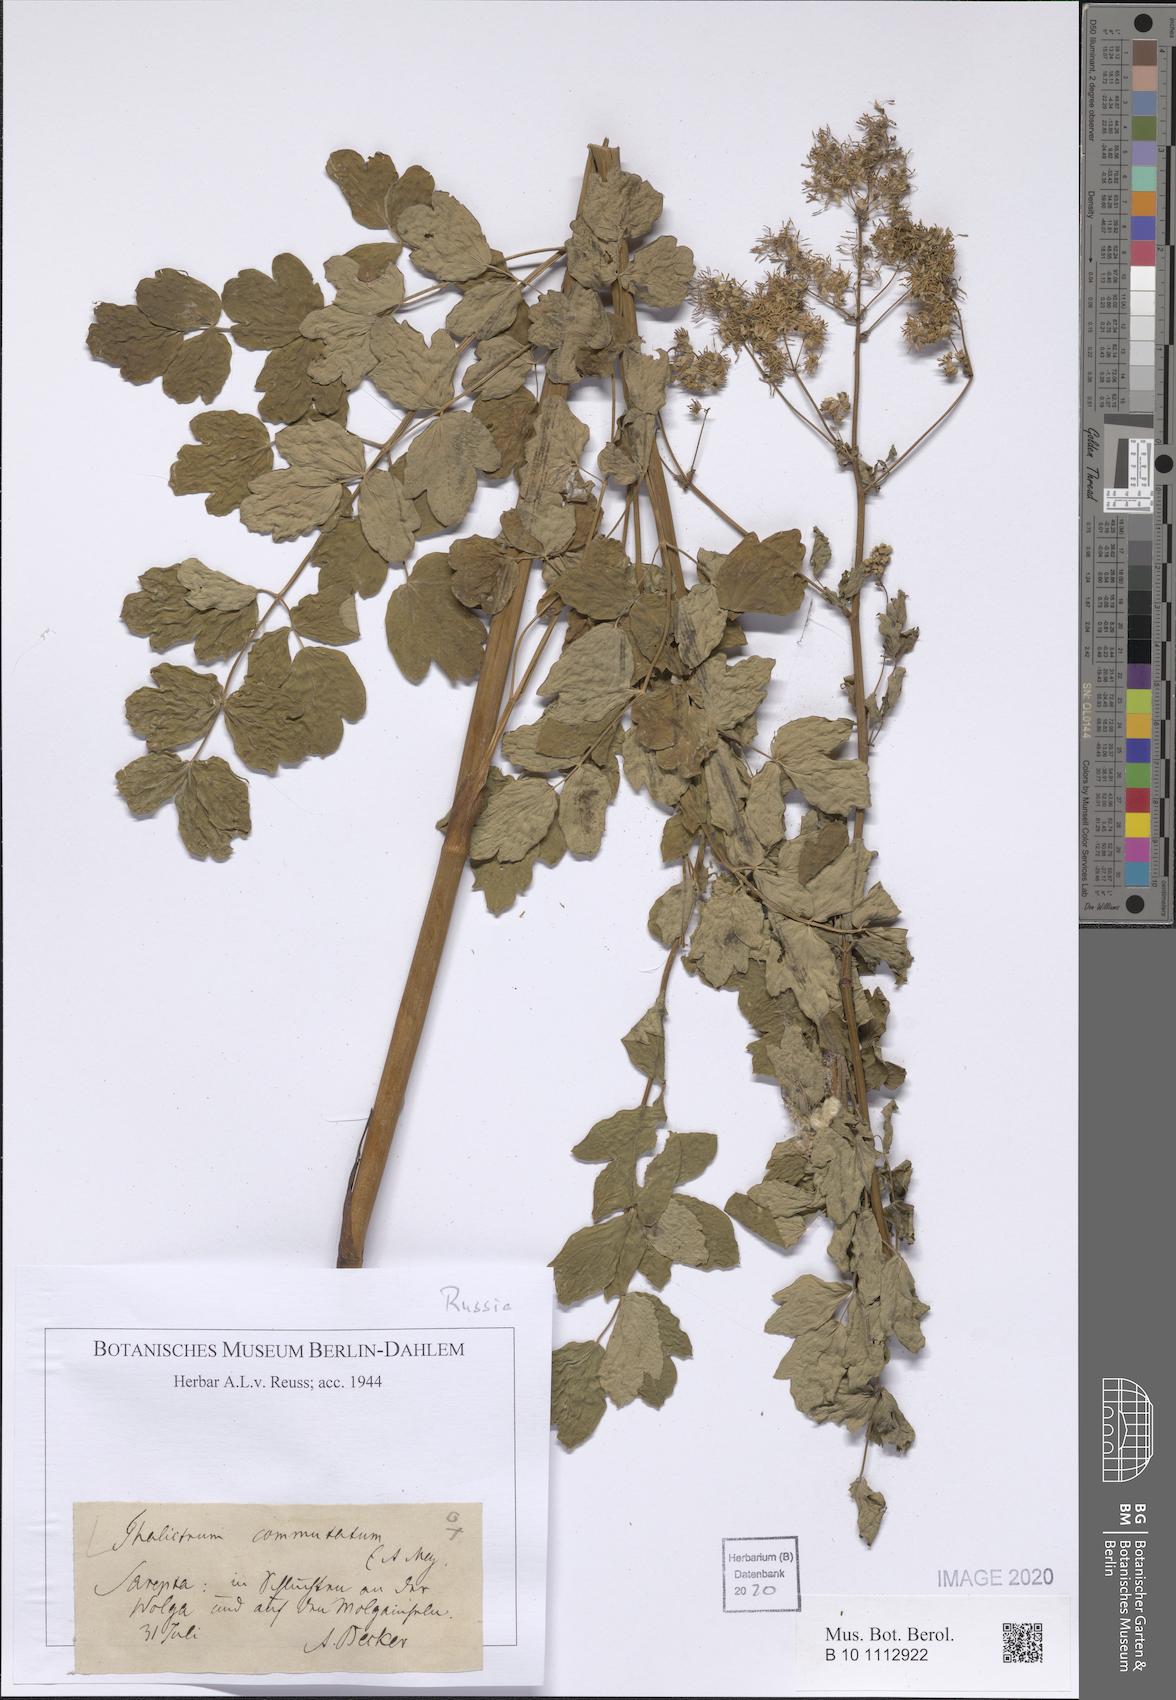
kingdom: Plantae
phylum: Tracheophyta
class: Magnoliopsida
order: Ranunculales
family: Ranunculaceae
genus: Thalictrum
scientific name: Thalictrum flavum
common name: Common meadow-rue
